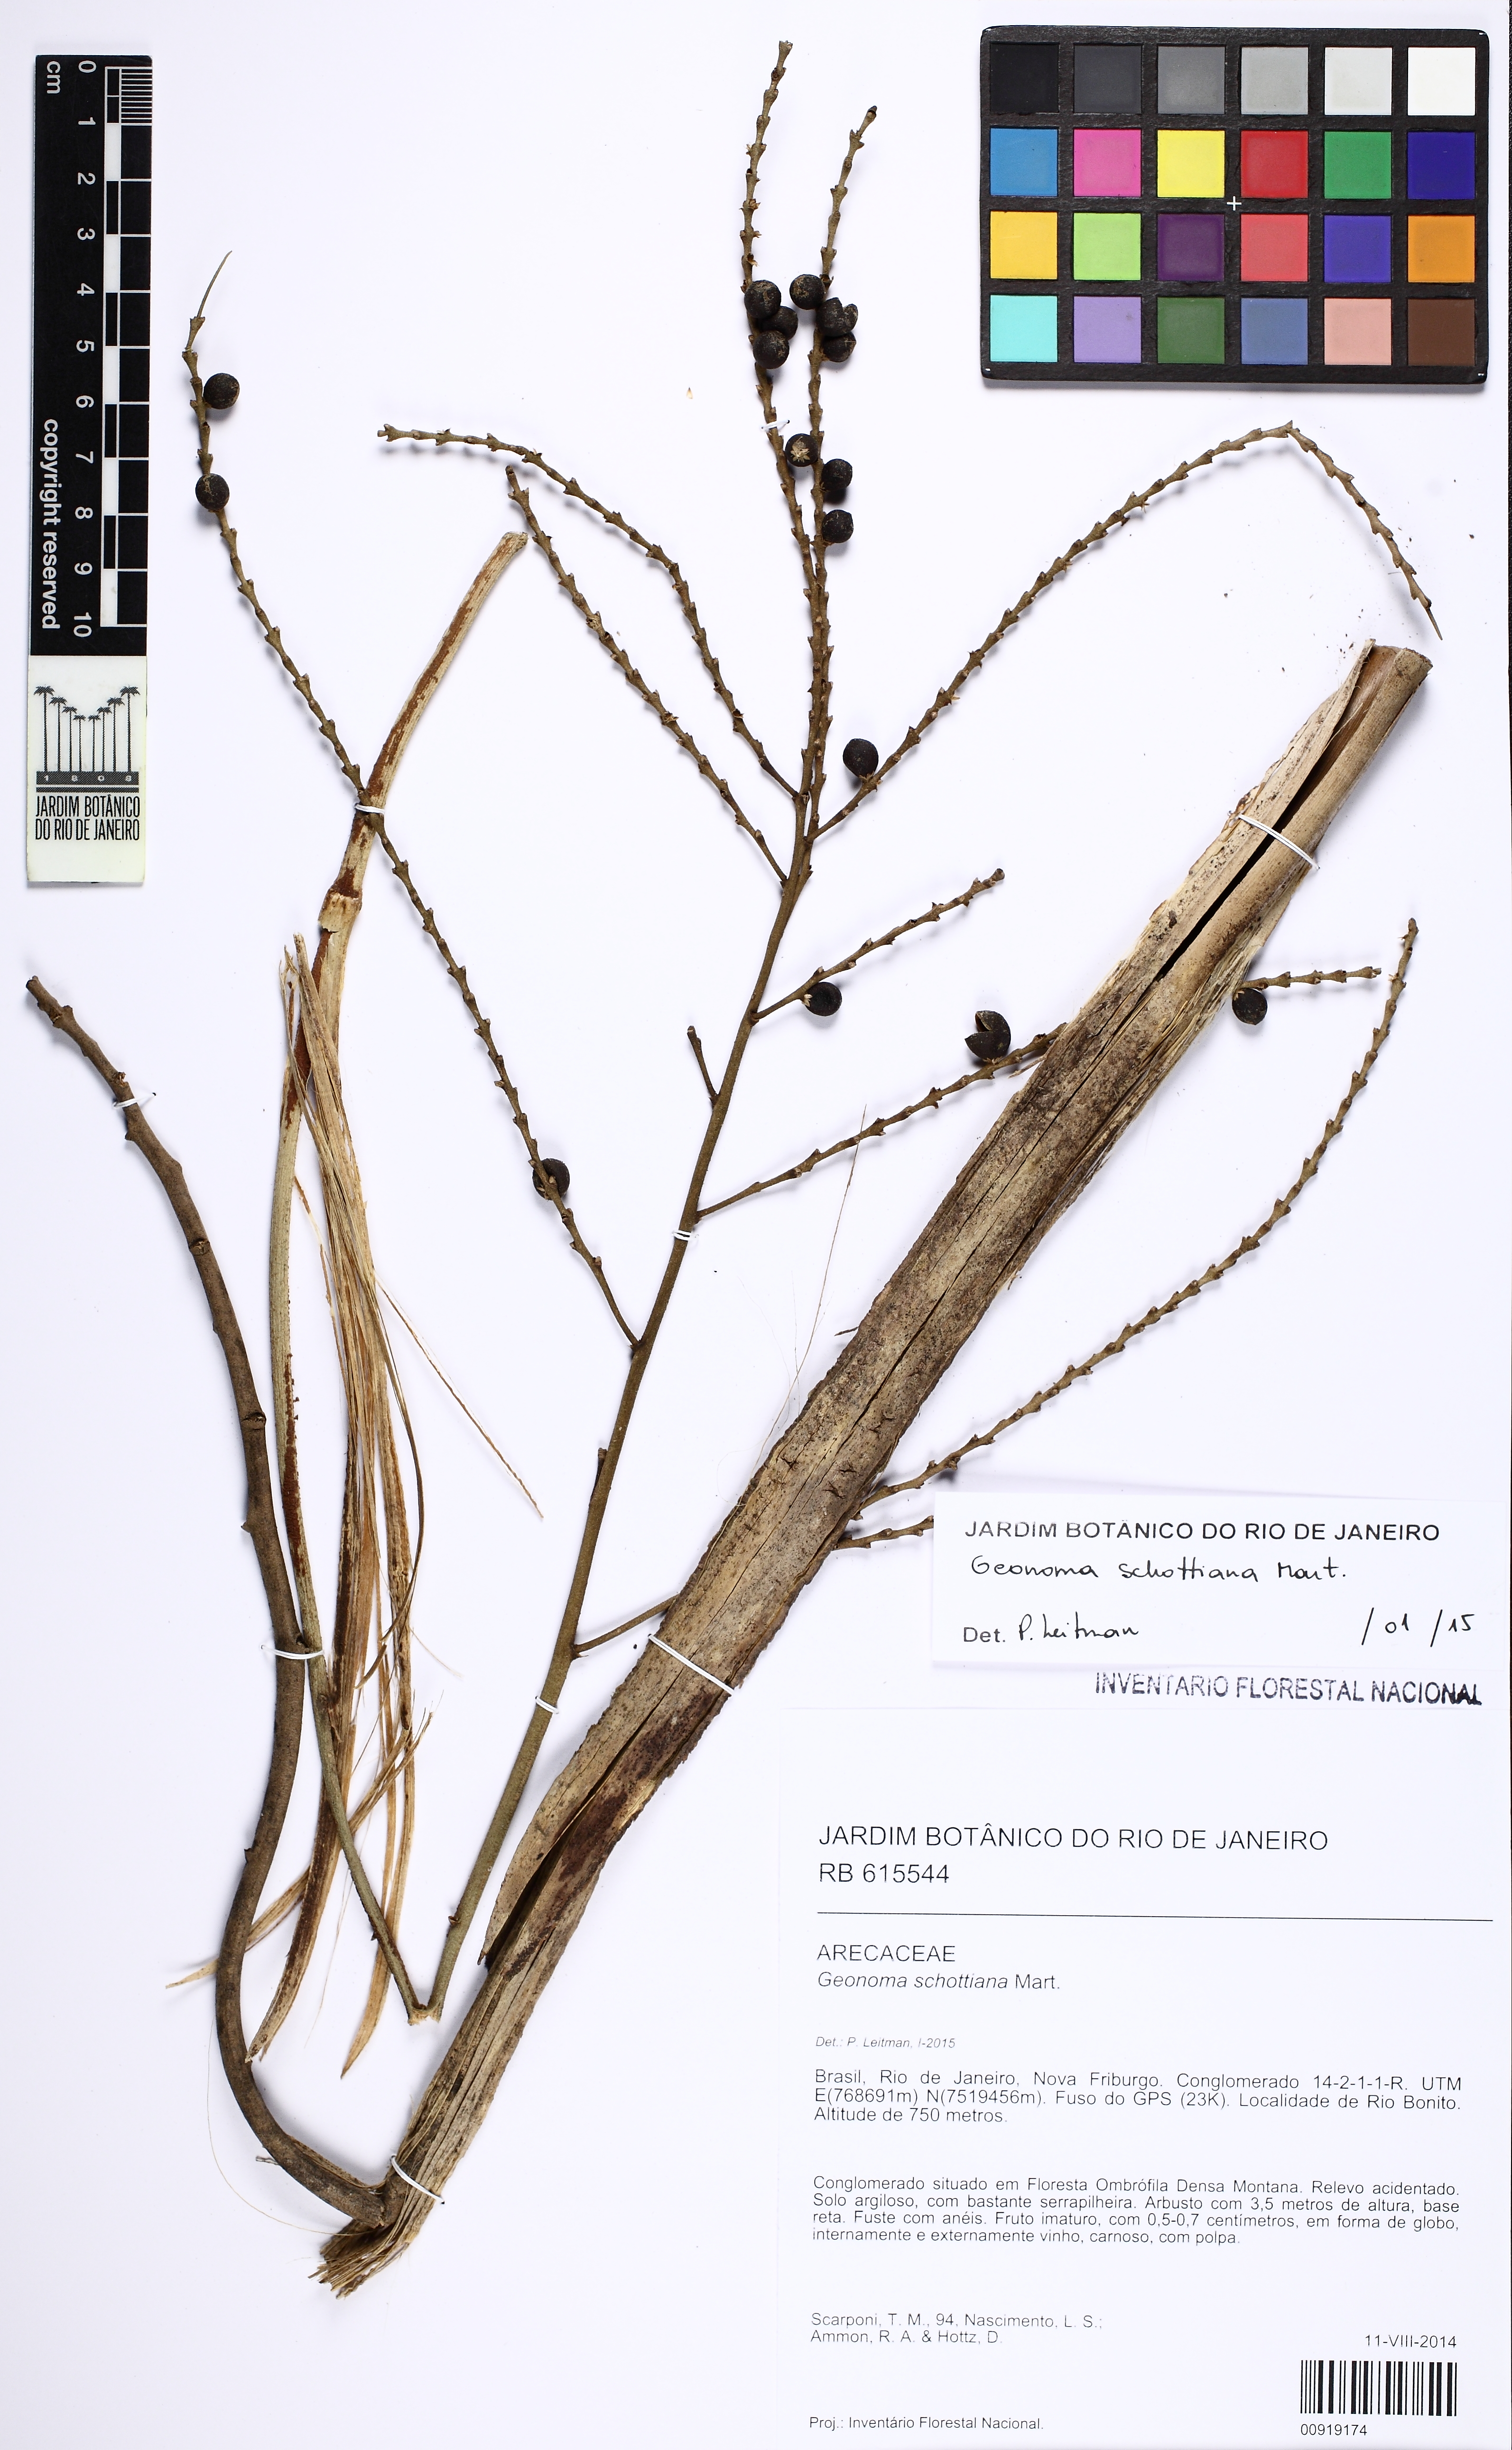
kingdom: Plantae
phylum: Tracheophyta
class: Liliopsida
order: Arecales
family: Arecaceae
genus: Geonoma
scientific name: Geonoma schottiana
